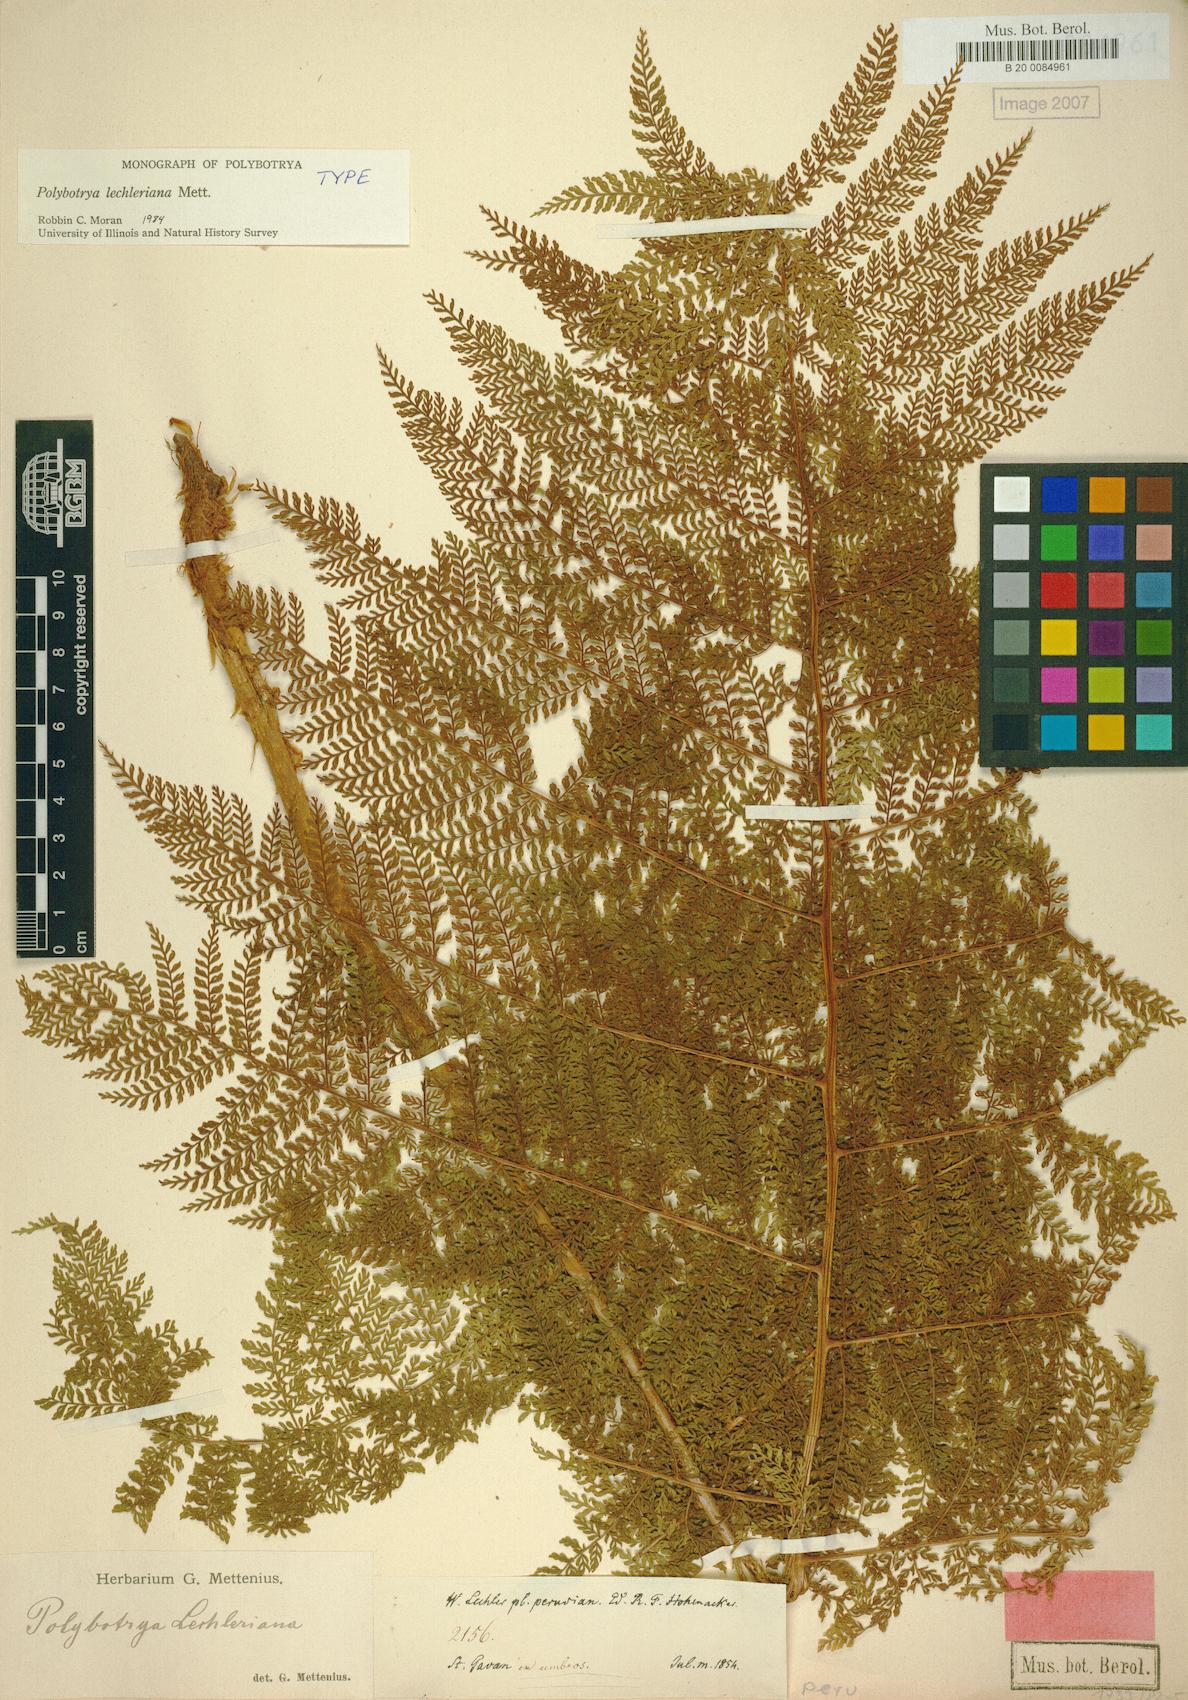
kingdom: Plantae
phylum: Tracheophyta
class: Polypodiopsida
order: Polypodiales
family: Dryopteridaceae
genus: Polybotrya
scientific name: Polybotrya lechleriana
